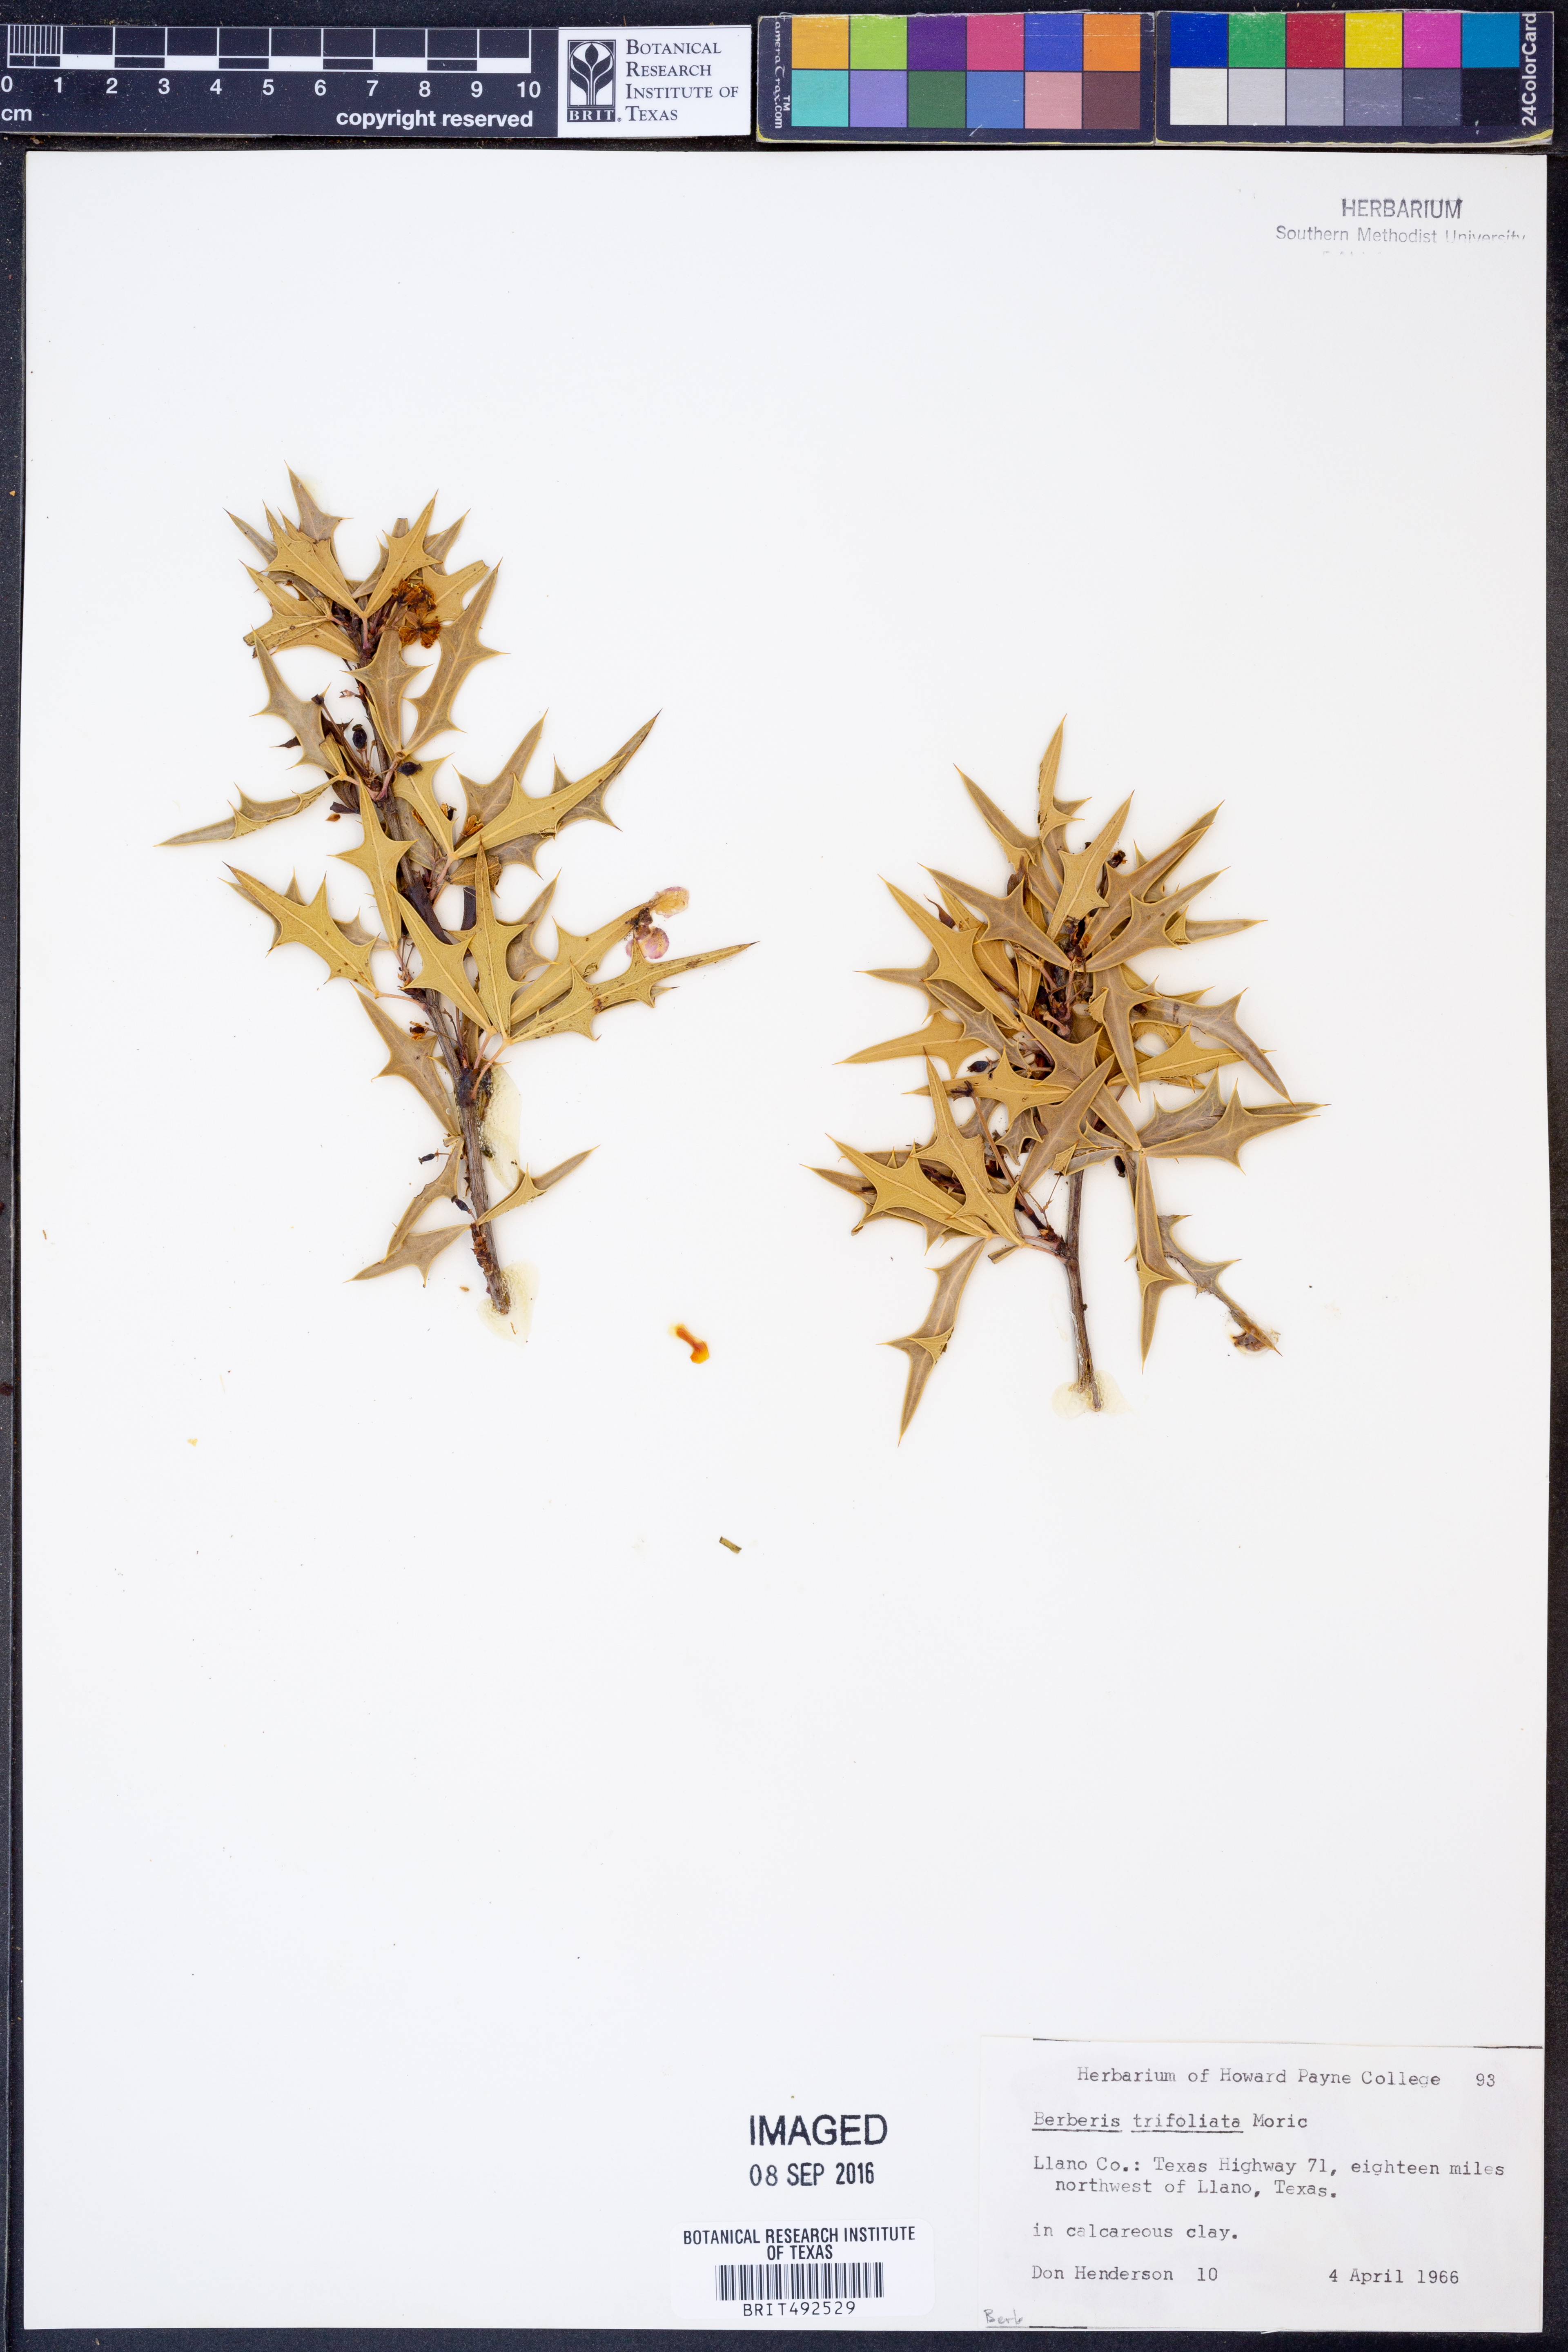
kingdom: Plantae
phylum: Tracheophyta
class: Magnoliopsida
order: Ranunculales
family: Berberidaceae
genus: Alloberberis
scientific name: Alloberberis fremontii
